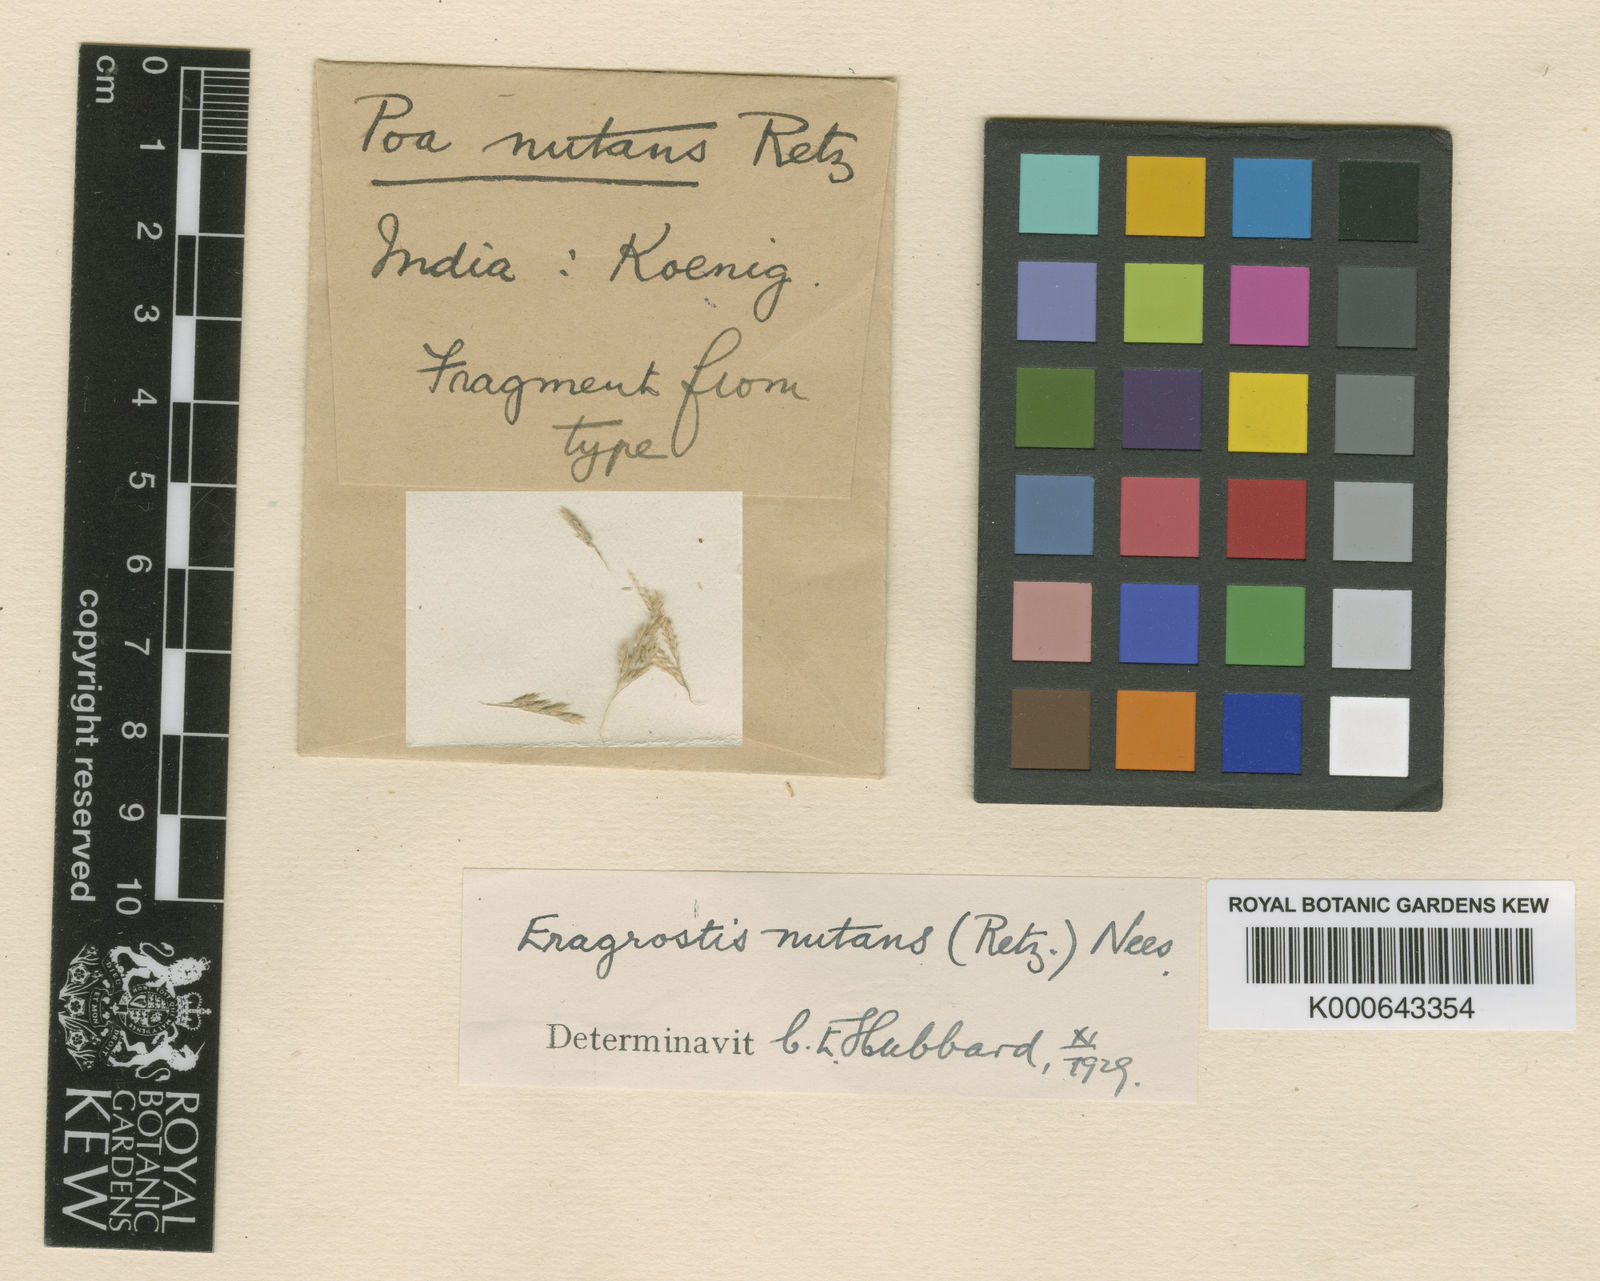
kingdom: Plantae
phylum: Tracheophyta
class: Liliopsida
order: Poales
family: Poaceae
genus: Eragrostis
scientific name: Eragrostis nutans
